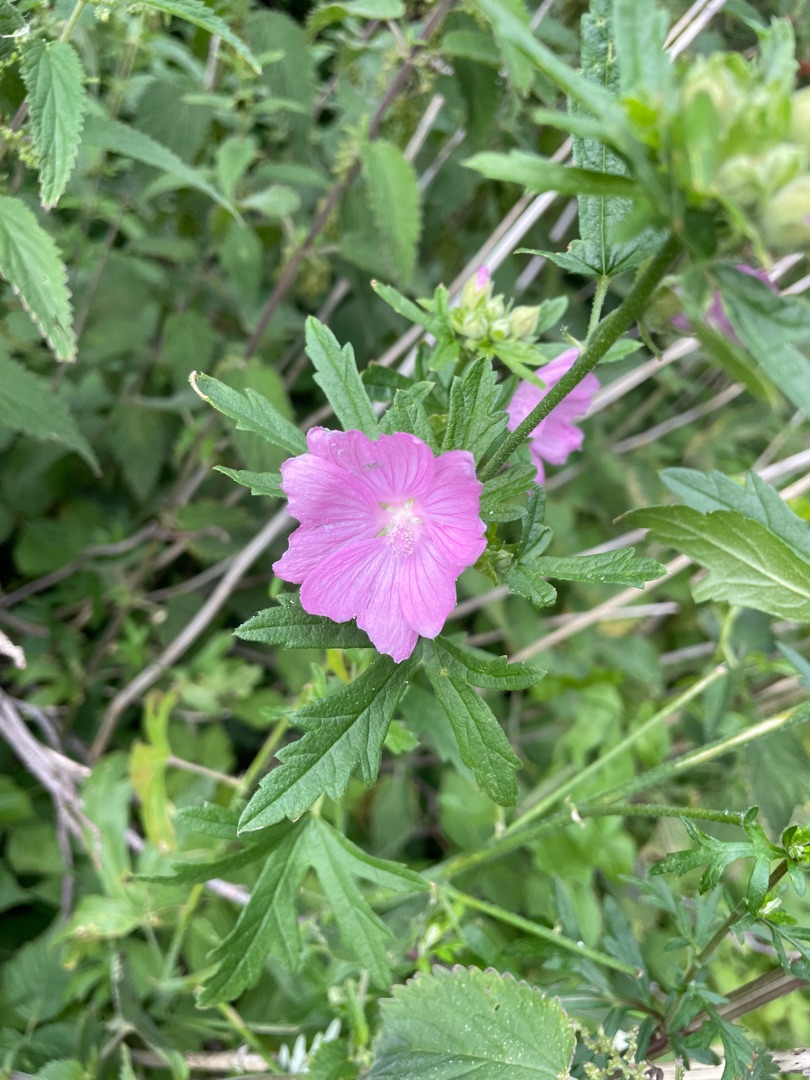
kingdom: Plantae
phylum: Tracheophyta
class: Magnoliopsida
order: Malvales
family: Malvaceae
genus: Malva
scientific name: Malva alcea
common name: Rosen-katost
